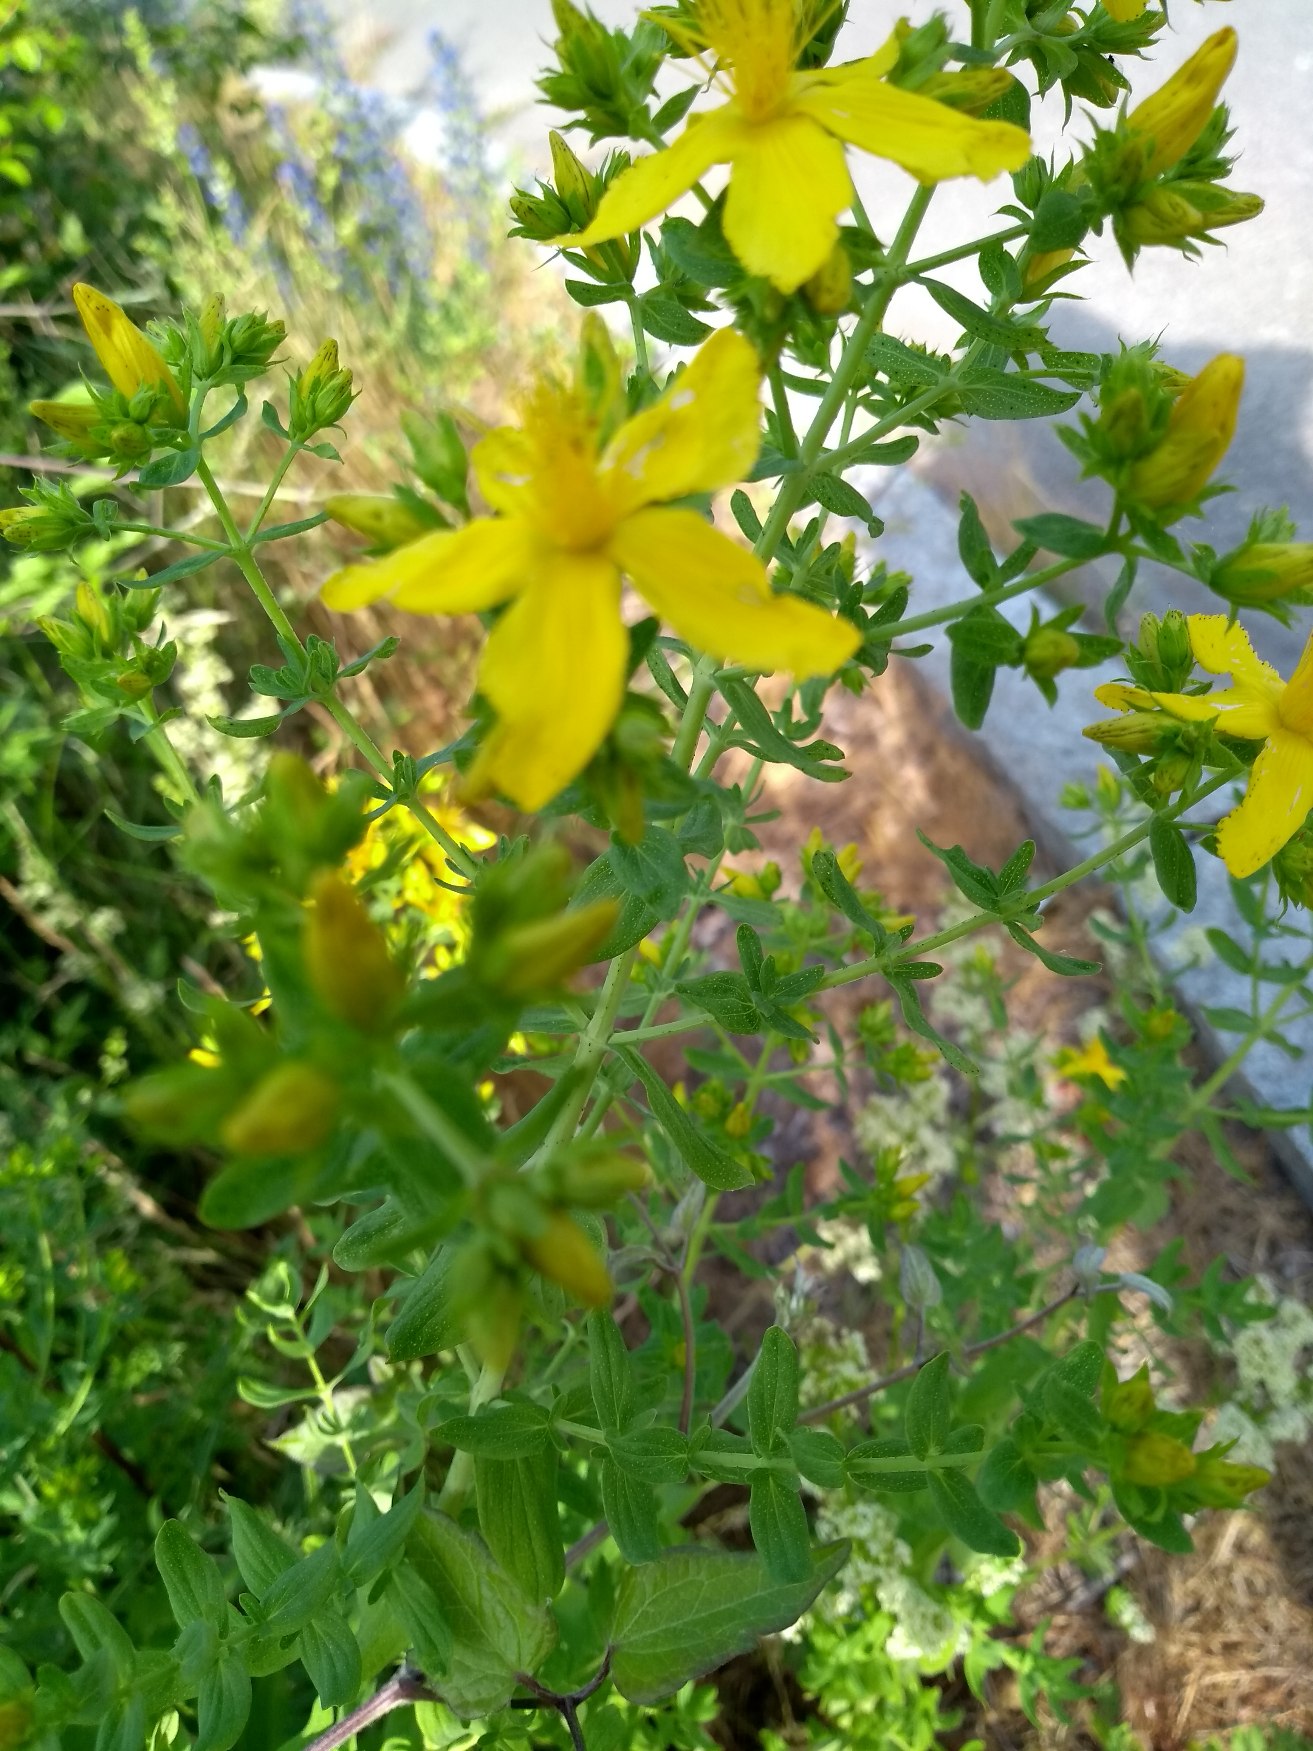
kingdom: Plantae
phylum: Tracheophyta
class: Magnoliopsida
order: Malpighiales
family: Hypericaceae
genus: Hypericum
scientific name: Hypericum perforatum
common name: Prikbladet perikon
